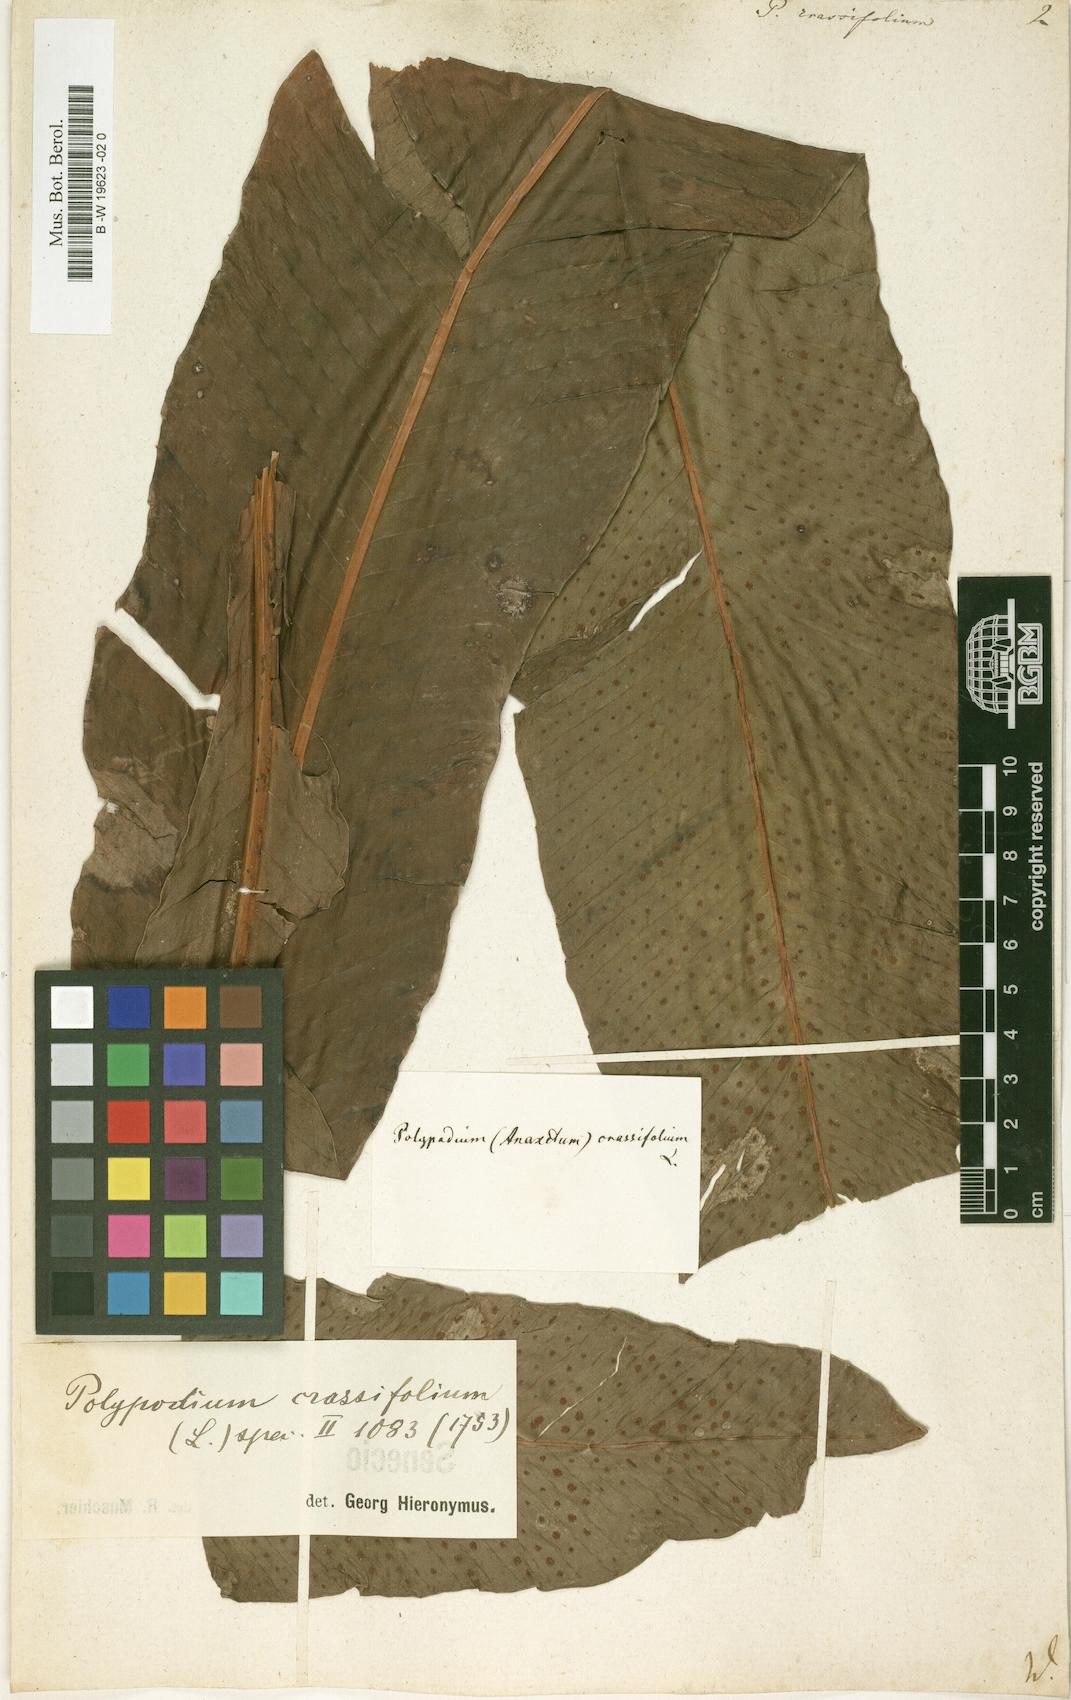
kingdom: Plantae
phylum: Tracheophyta
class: Polypodiopsida
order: Polypodiales
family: Polypodiaceae
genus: Niphidium
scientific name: Niphidium crassifolium
